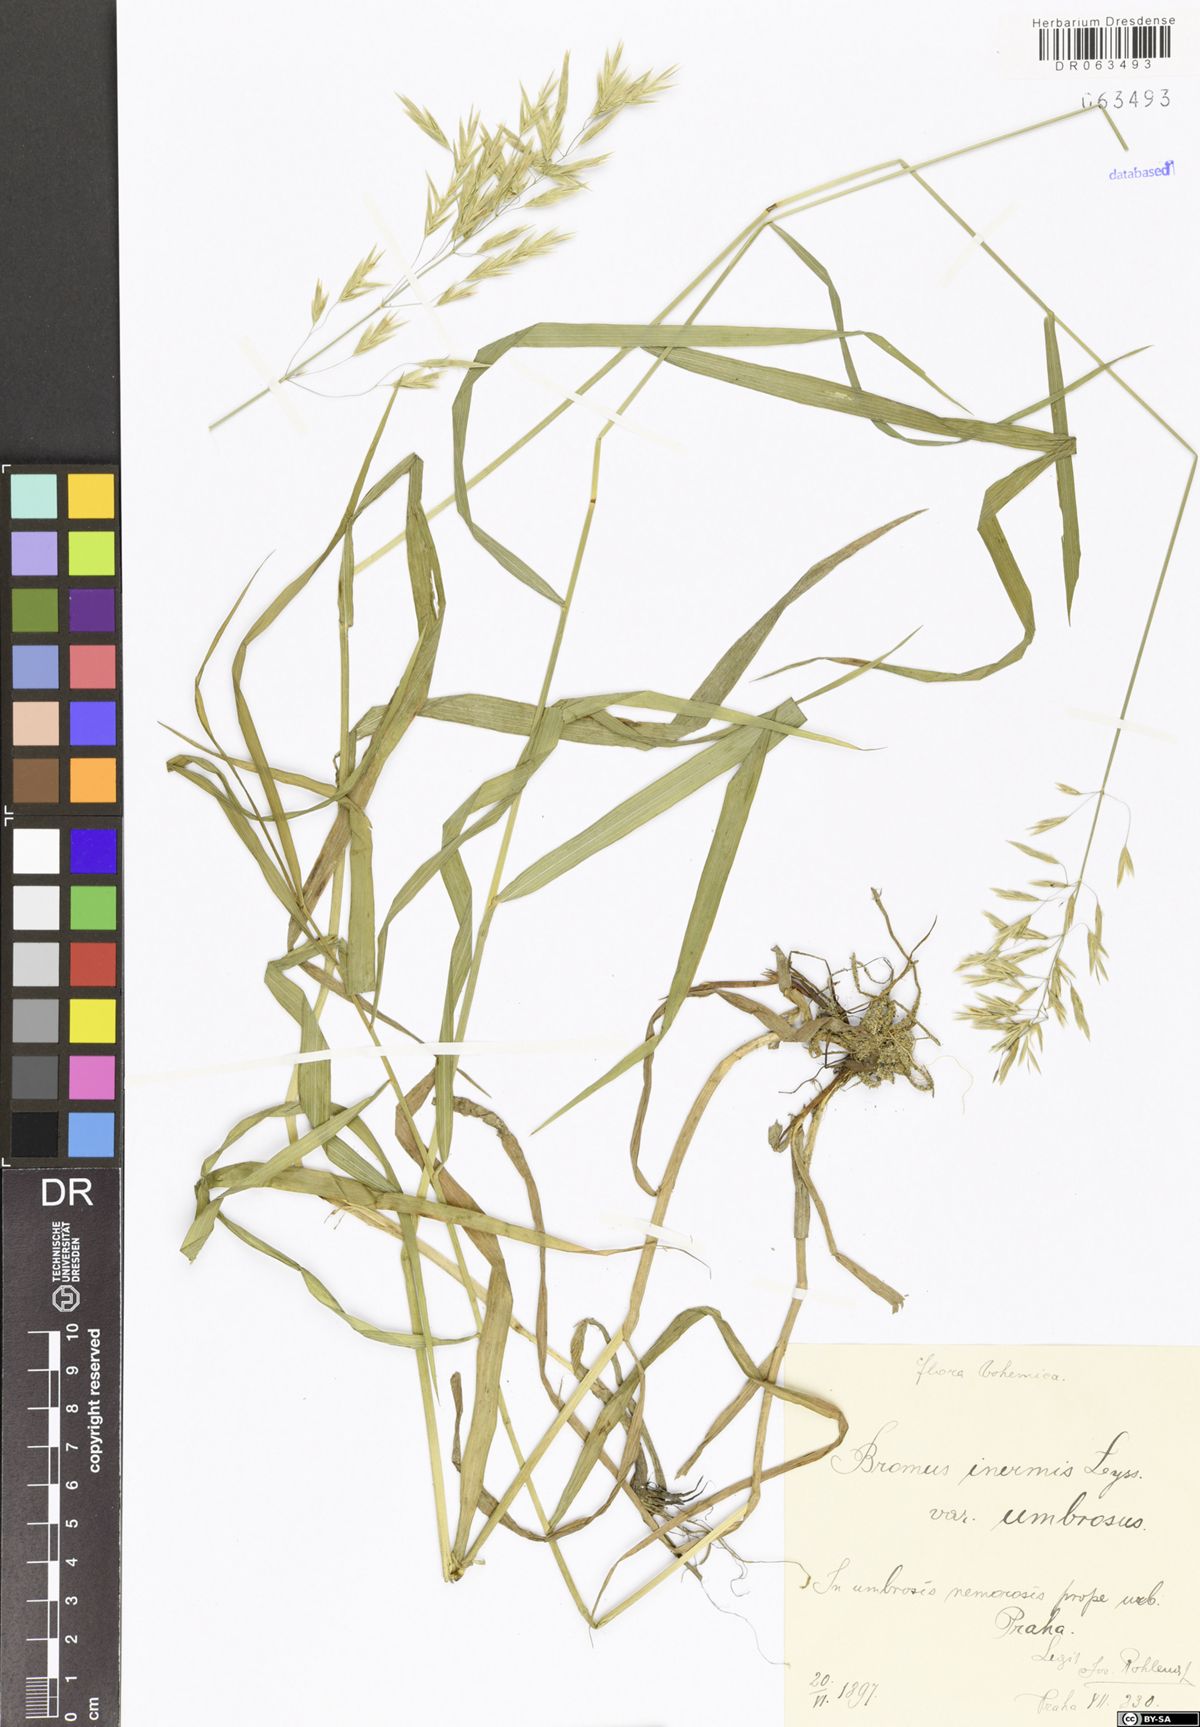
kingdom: Plantae
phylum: Tracheophyta
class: Liliopsida
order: Poales
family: Poaceae
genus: Bromus
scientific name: Bromus inermis
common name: Smooth brome
